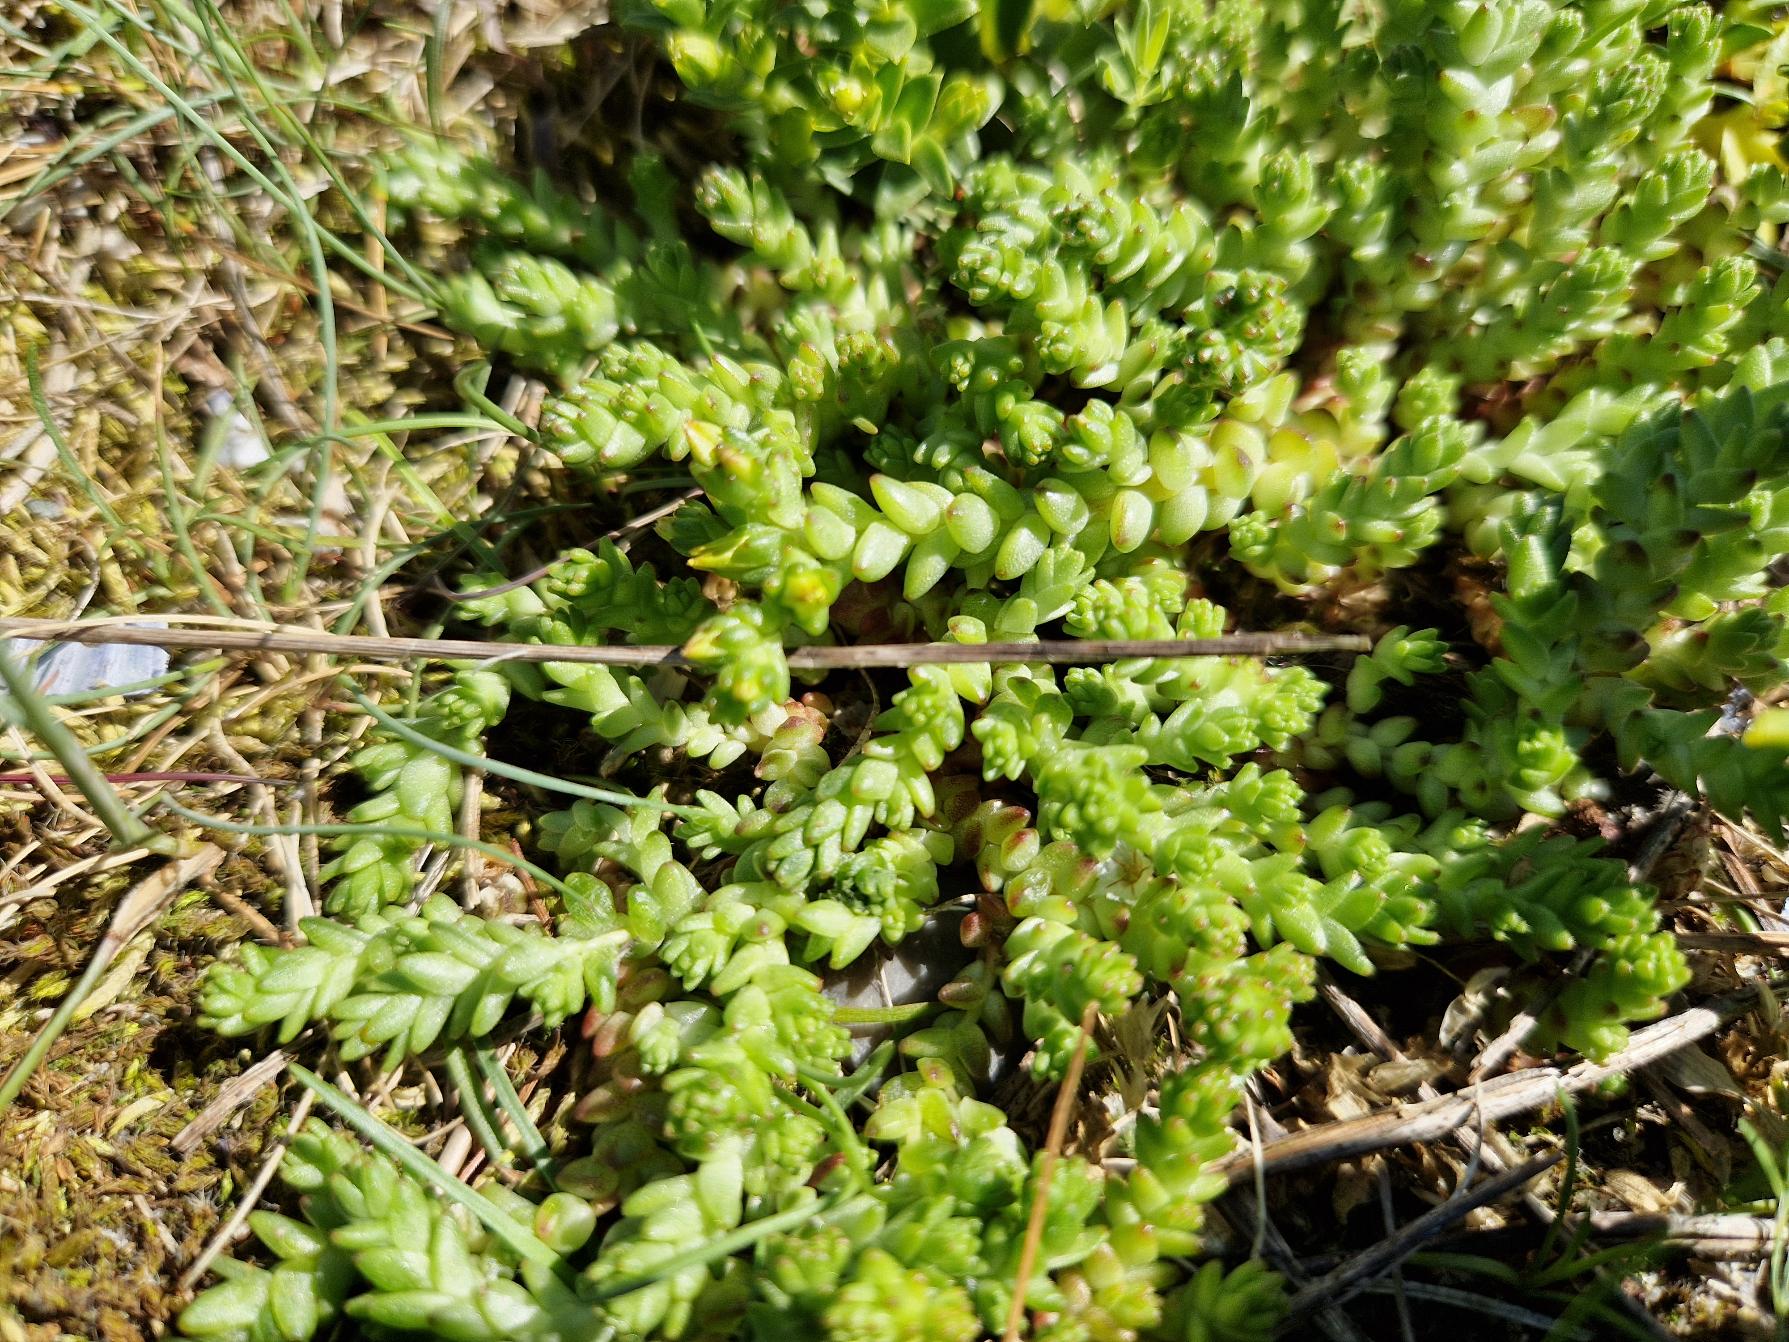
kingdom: Plantae
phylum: Tracheophyta
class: Magnoliopsida
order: Saxifragales
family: Crassulaceae
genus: Sedum
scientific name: Sedum acre
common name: Bidende stenurt
